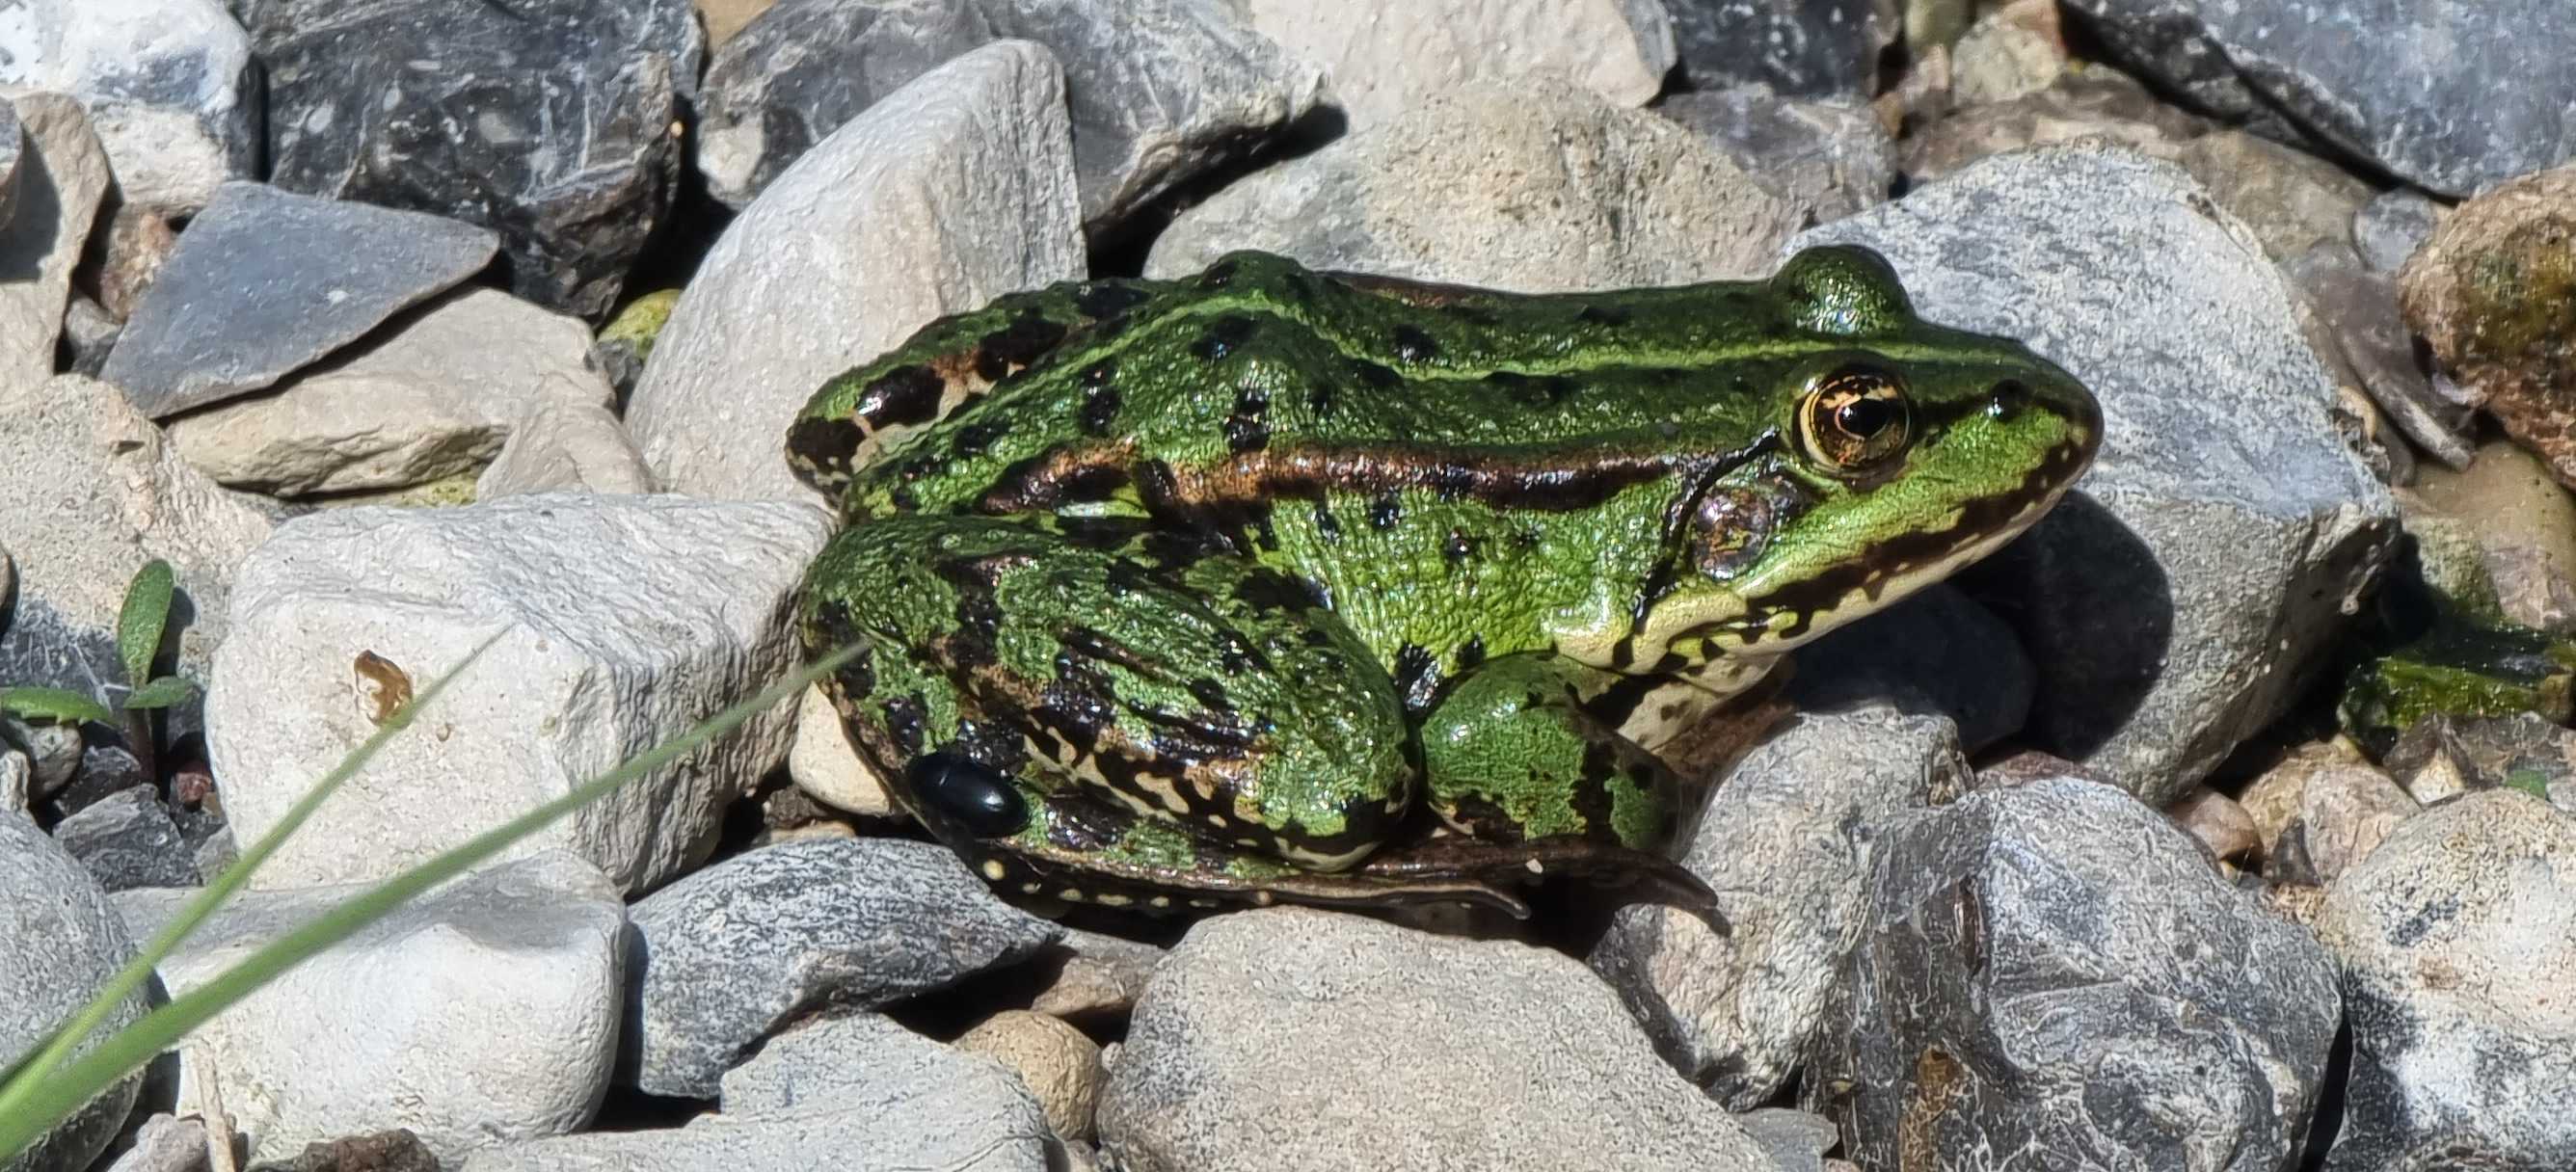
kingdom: Animalia
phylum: Chordata
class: Amphibia
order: Anura
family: Ranidae
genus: Pelophylax
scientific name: Pelophylax lessonae
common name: Grøn frø
